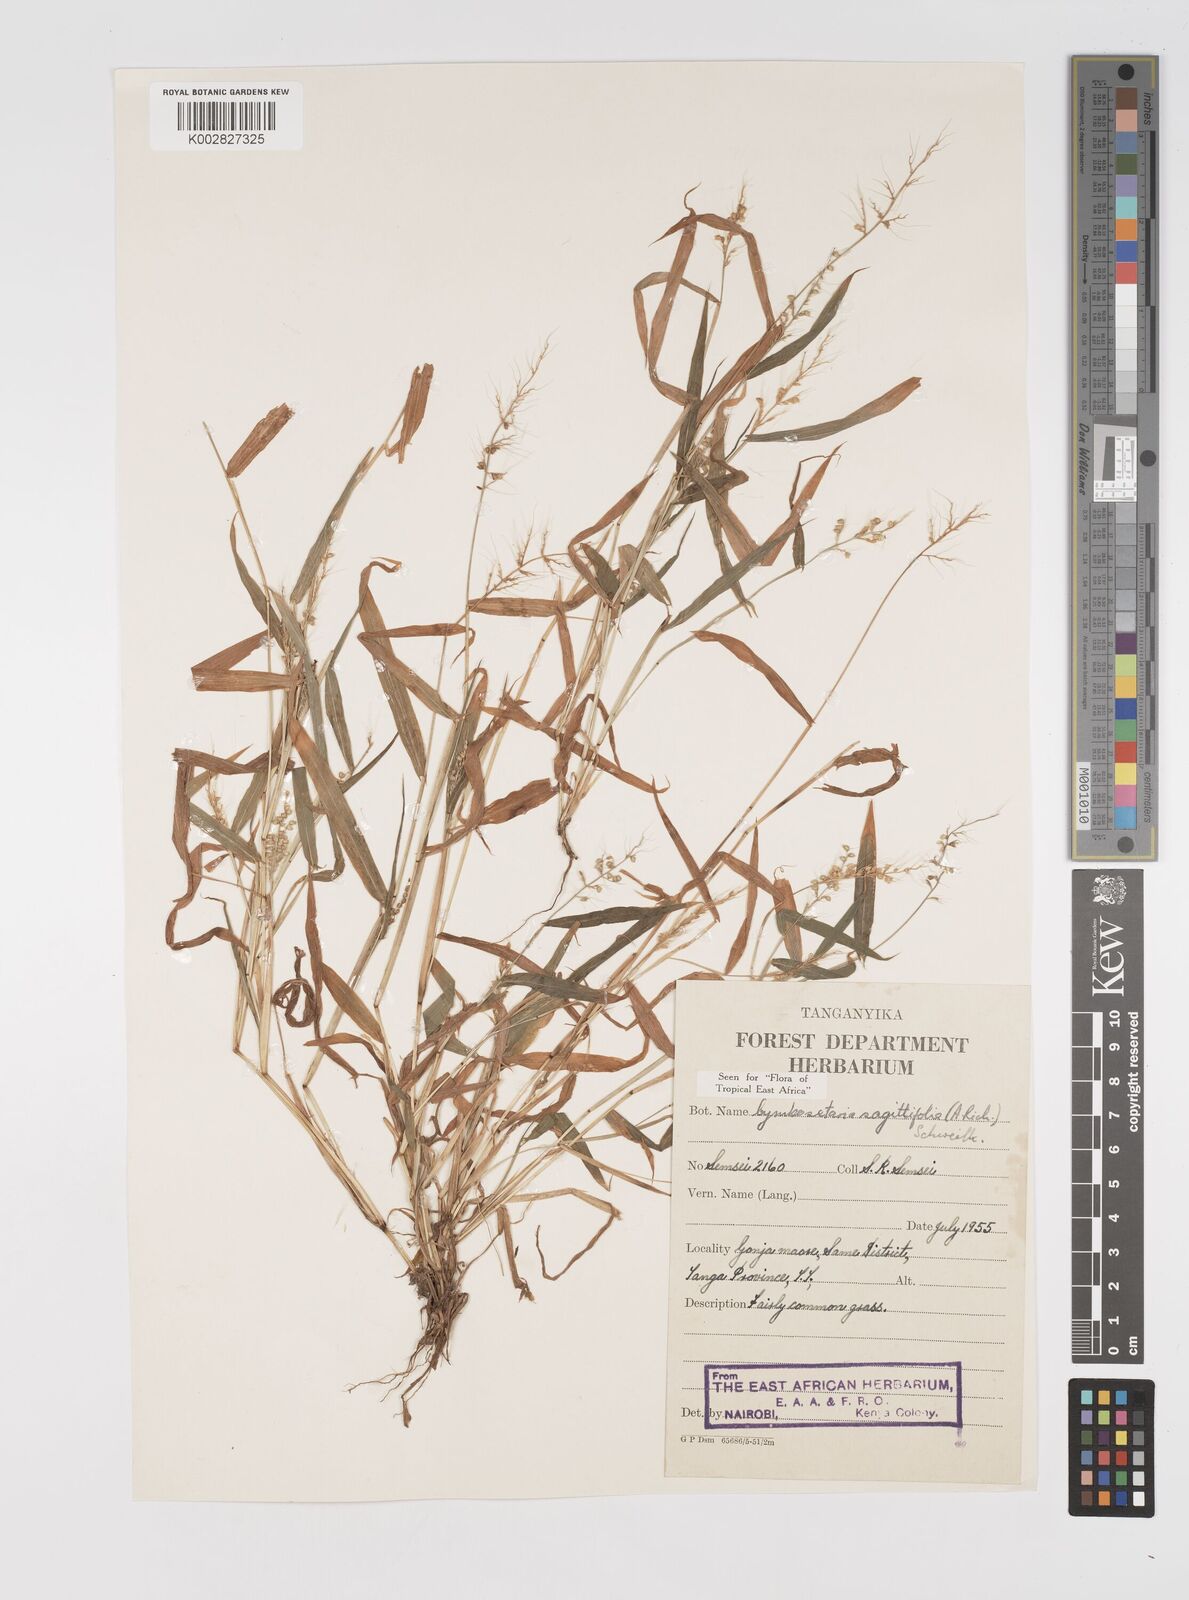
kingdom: Plantae
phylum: Tracheophyta
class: Liliopsida
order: Poales
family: Poaceae
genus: Setaria
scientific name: Setaria sagittifolia
